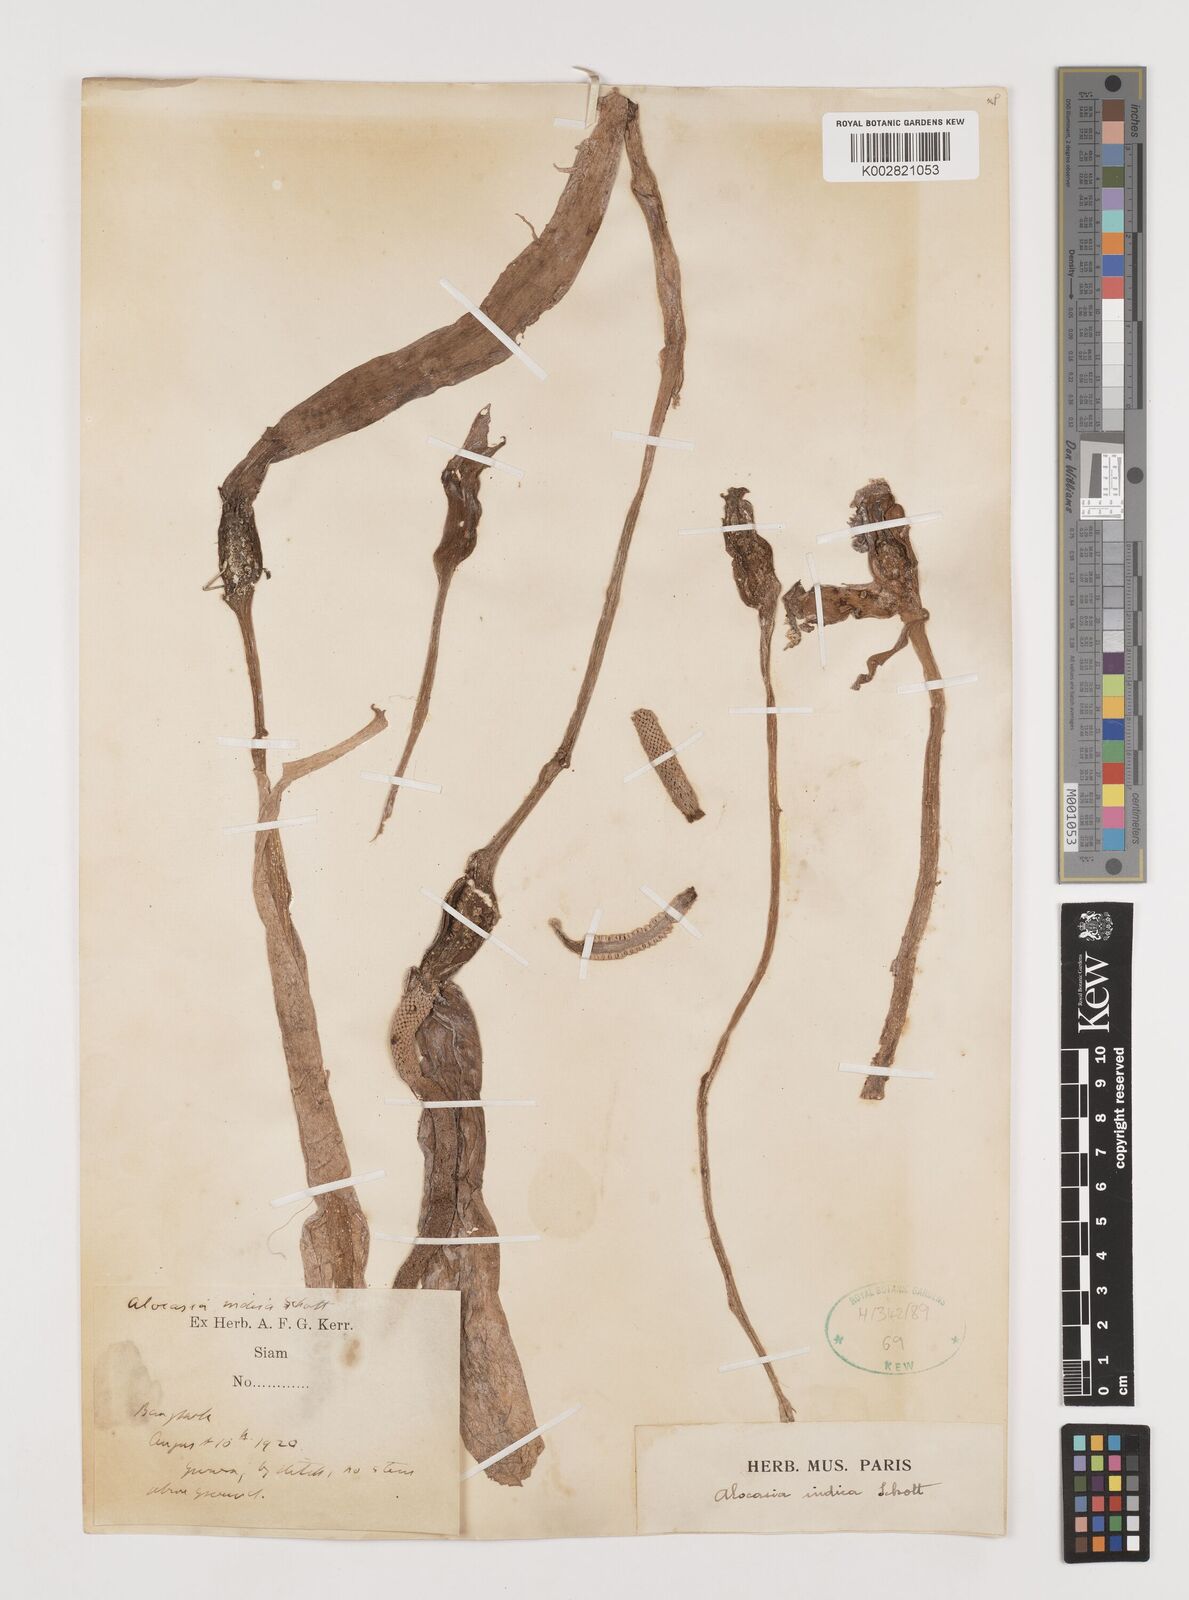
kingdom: Plantae
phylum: Tracheophyta
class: Liliopsida
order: Alismatales
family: Araceae
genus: Alocasia
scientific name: Alocasia macrorrhizos
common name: Giant taro
